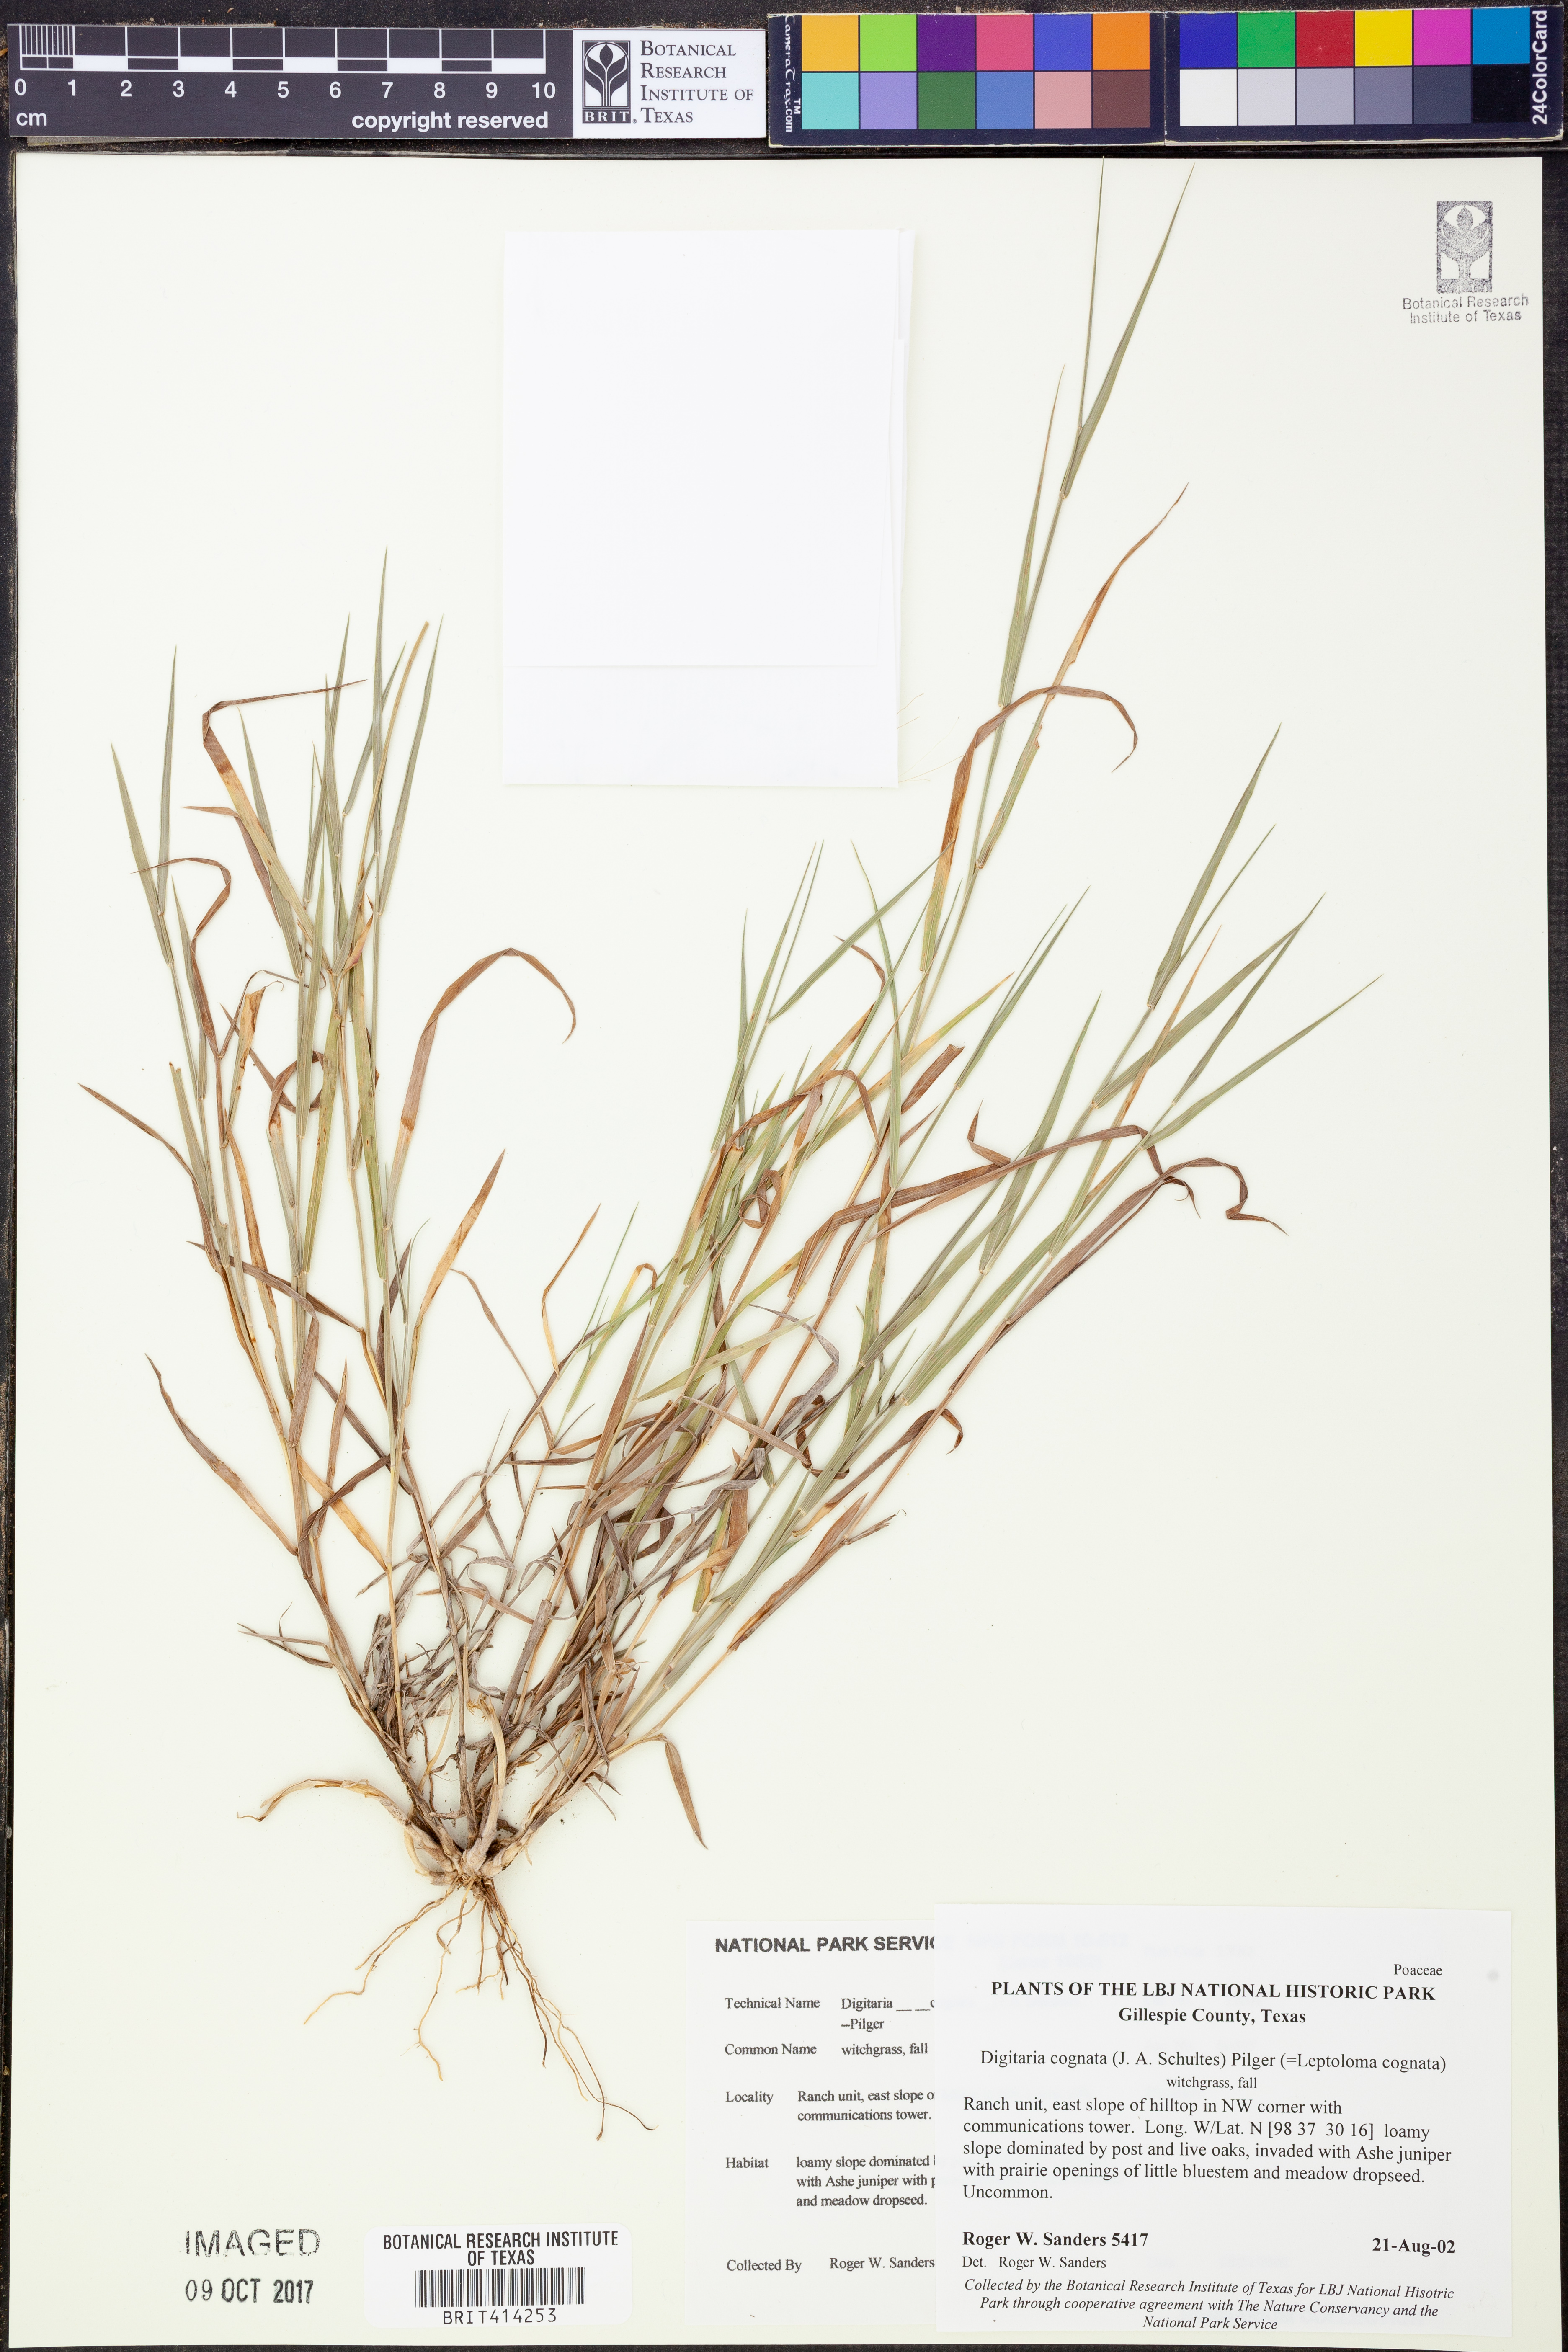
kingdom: Plantae
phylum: Tracheophyta
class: Liliopsida
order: Poales
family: Poaceae
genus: Digitaria
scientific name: Digitaria cognata
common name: Fall witchgrass
